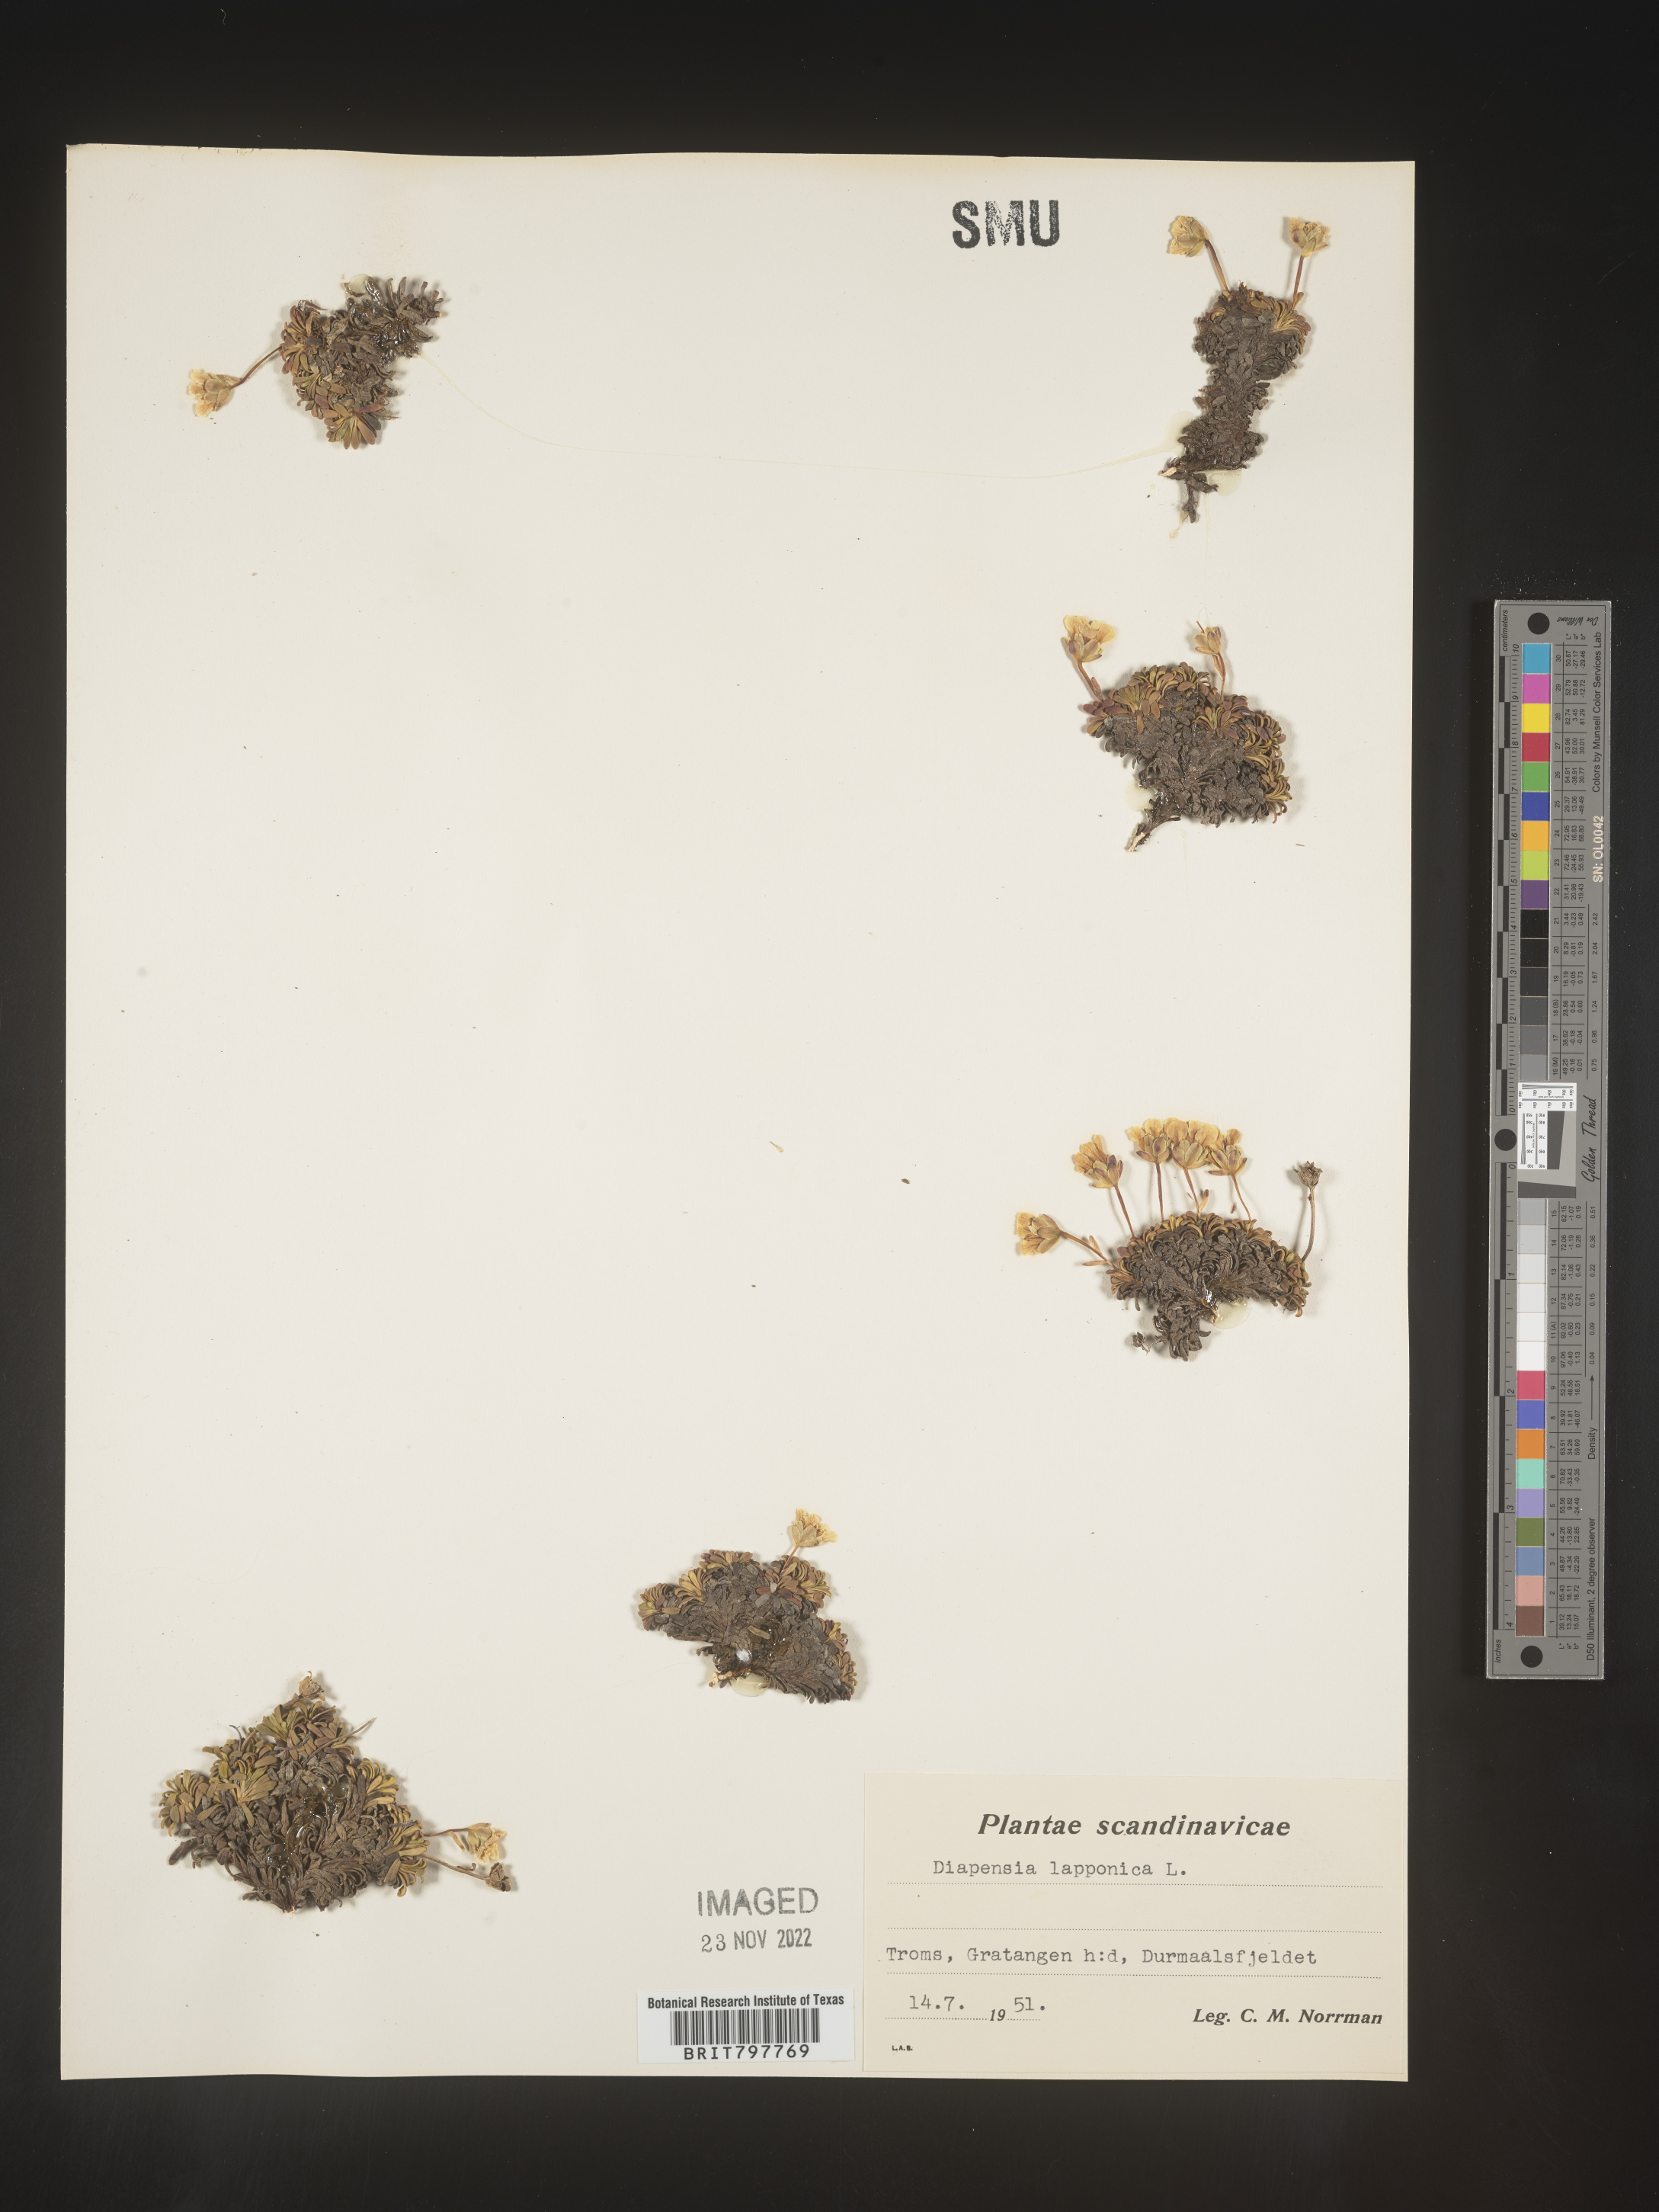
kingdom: Plantae
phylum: Tracheophyta
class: Magnoliopsida
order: Ericales
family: Diapensiaceae
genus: Diapensia
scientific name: Diapensia
